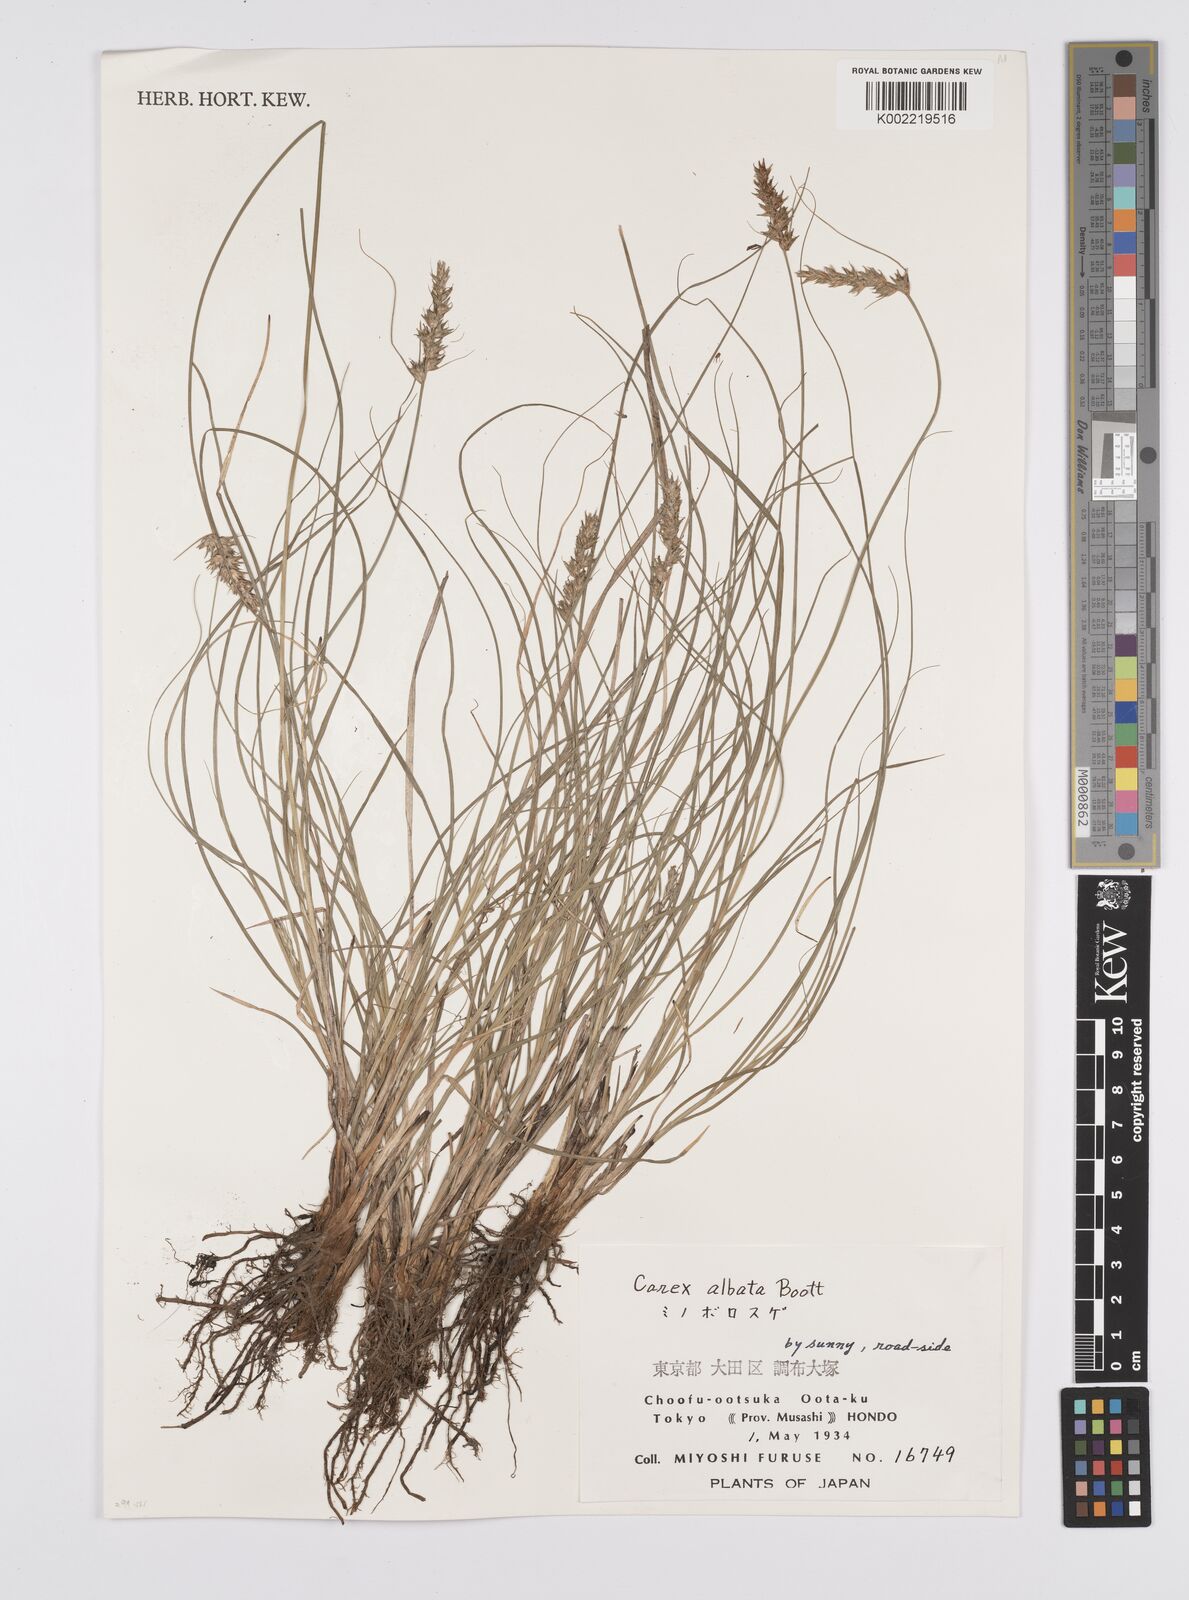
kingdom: Plantae
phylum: Tracheophyta
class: Liliopsida
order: Poales
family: Cyperaceae
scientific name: Cyperaceae
